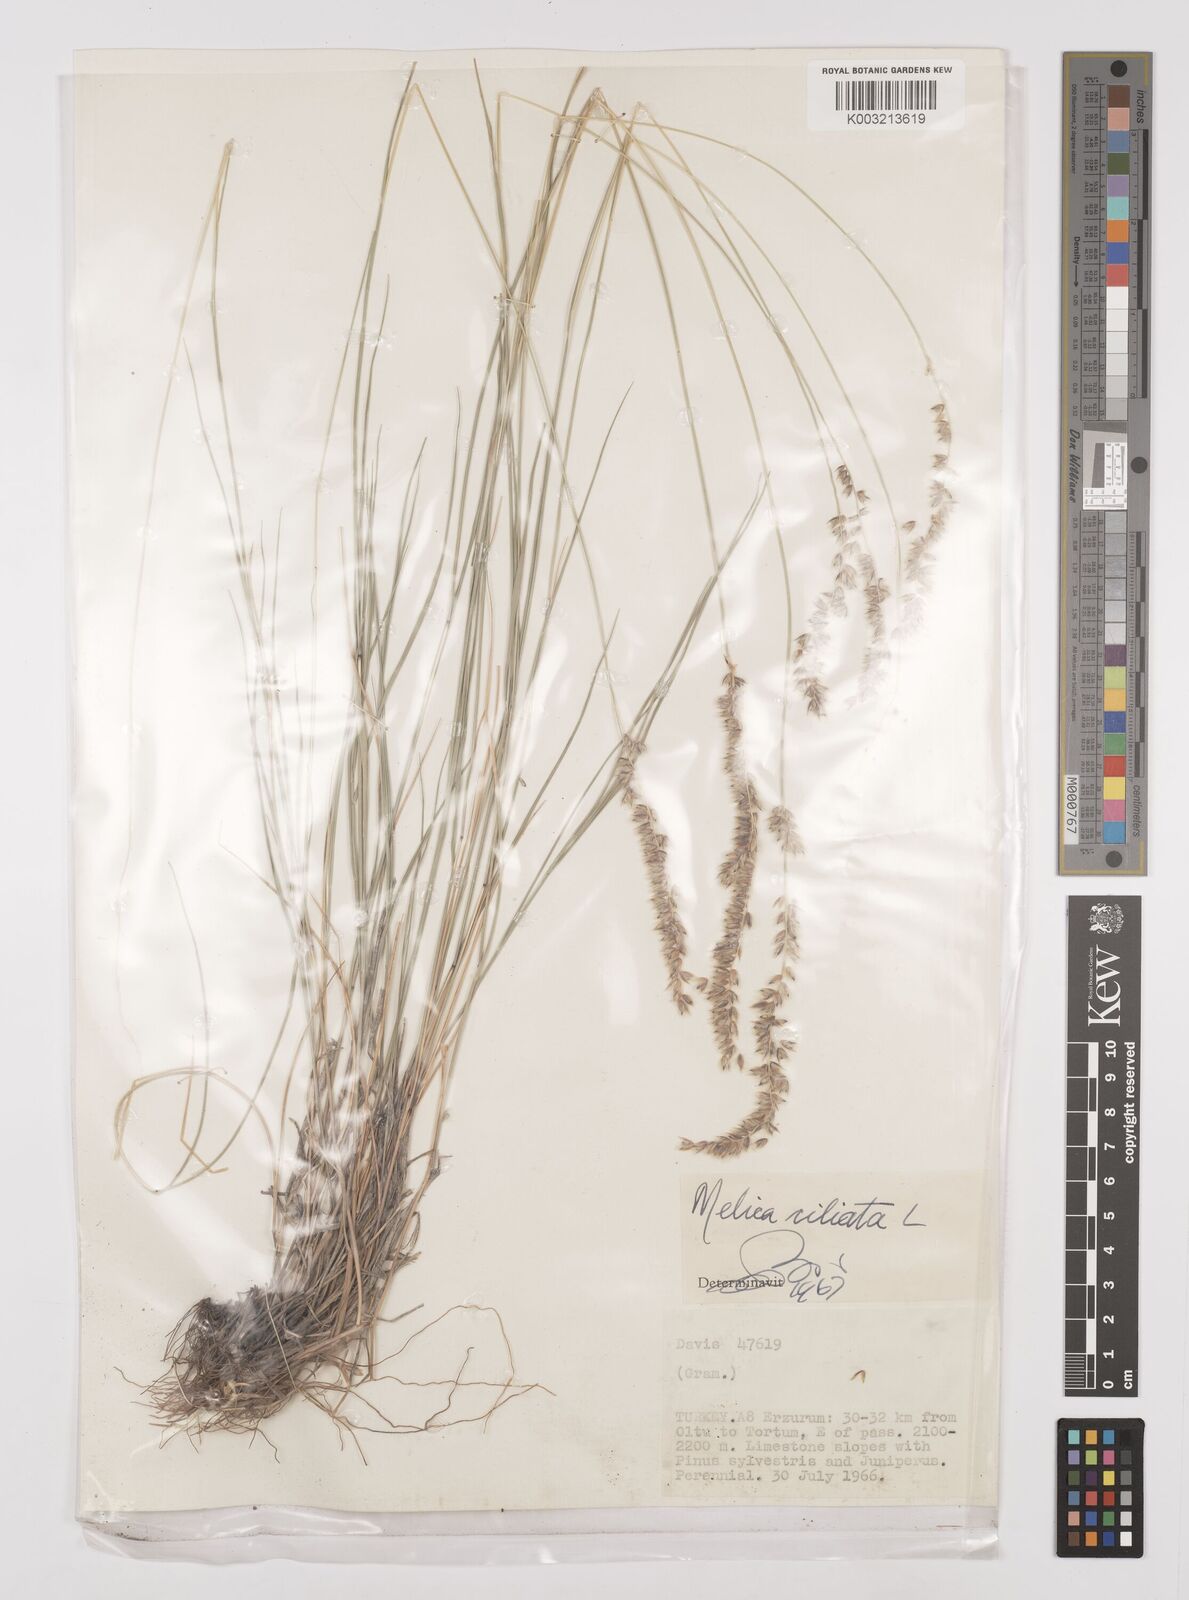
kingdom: Plantae
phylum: Tracheophyta
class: Liliopsida
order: Poales
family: Poaceae
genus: Melica
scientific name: Melica ciliata
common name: Hairy melicgrass
